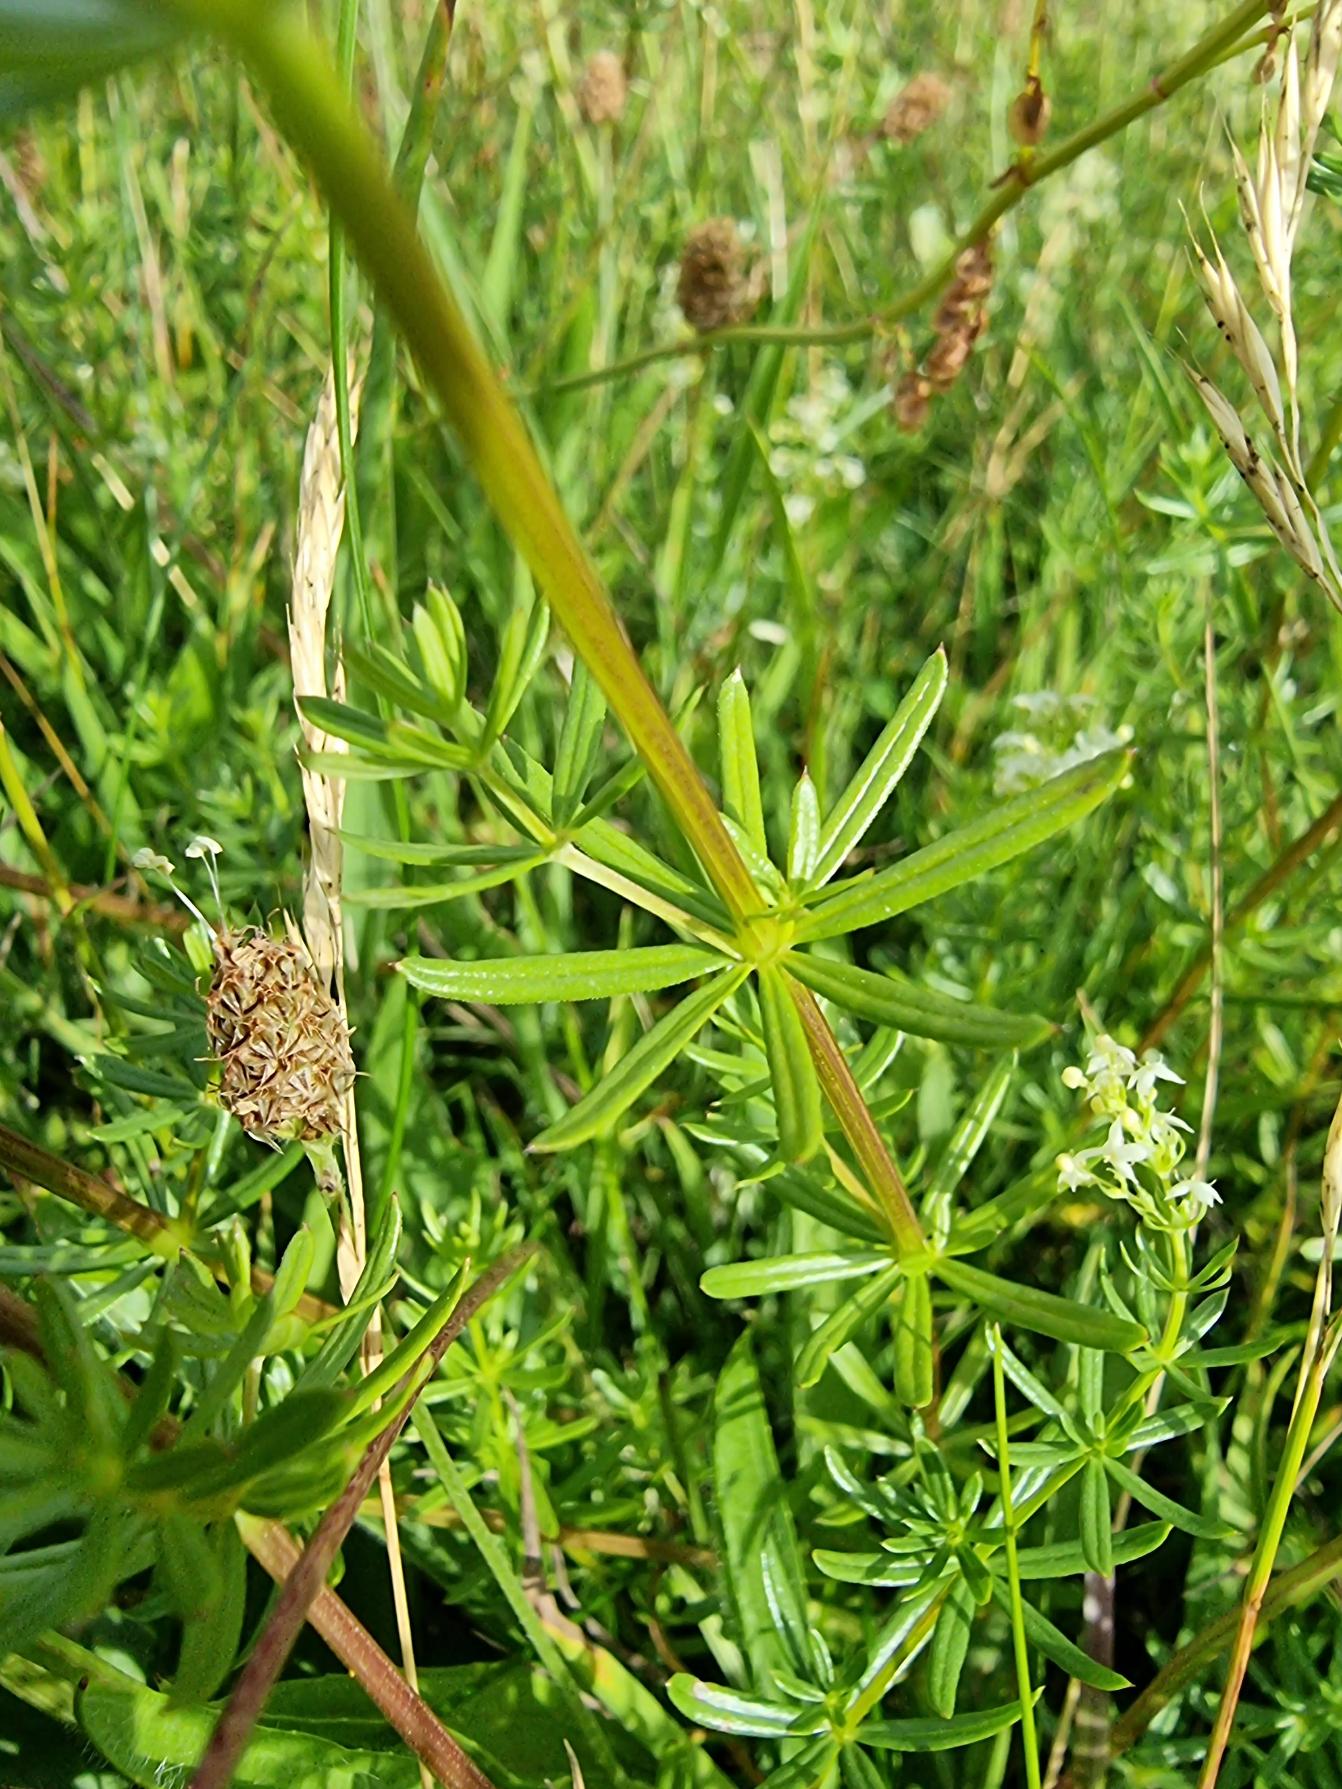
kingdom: Plantae
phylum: Tracheophyta
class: Magnoliopsida
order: Gentianales
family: Rubiaceae
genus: Galium
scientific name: Galium mollugo
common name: Hvid snerre
